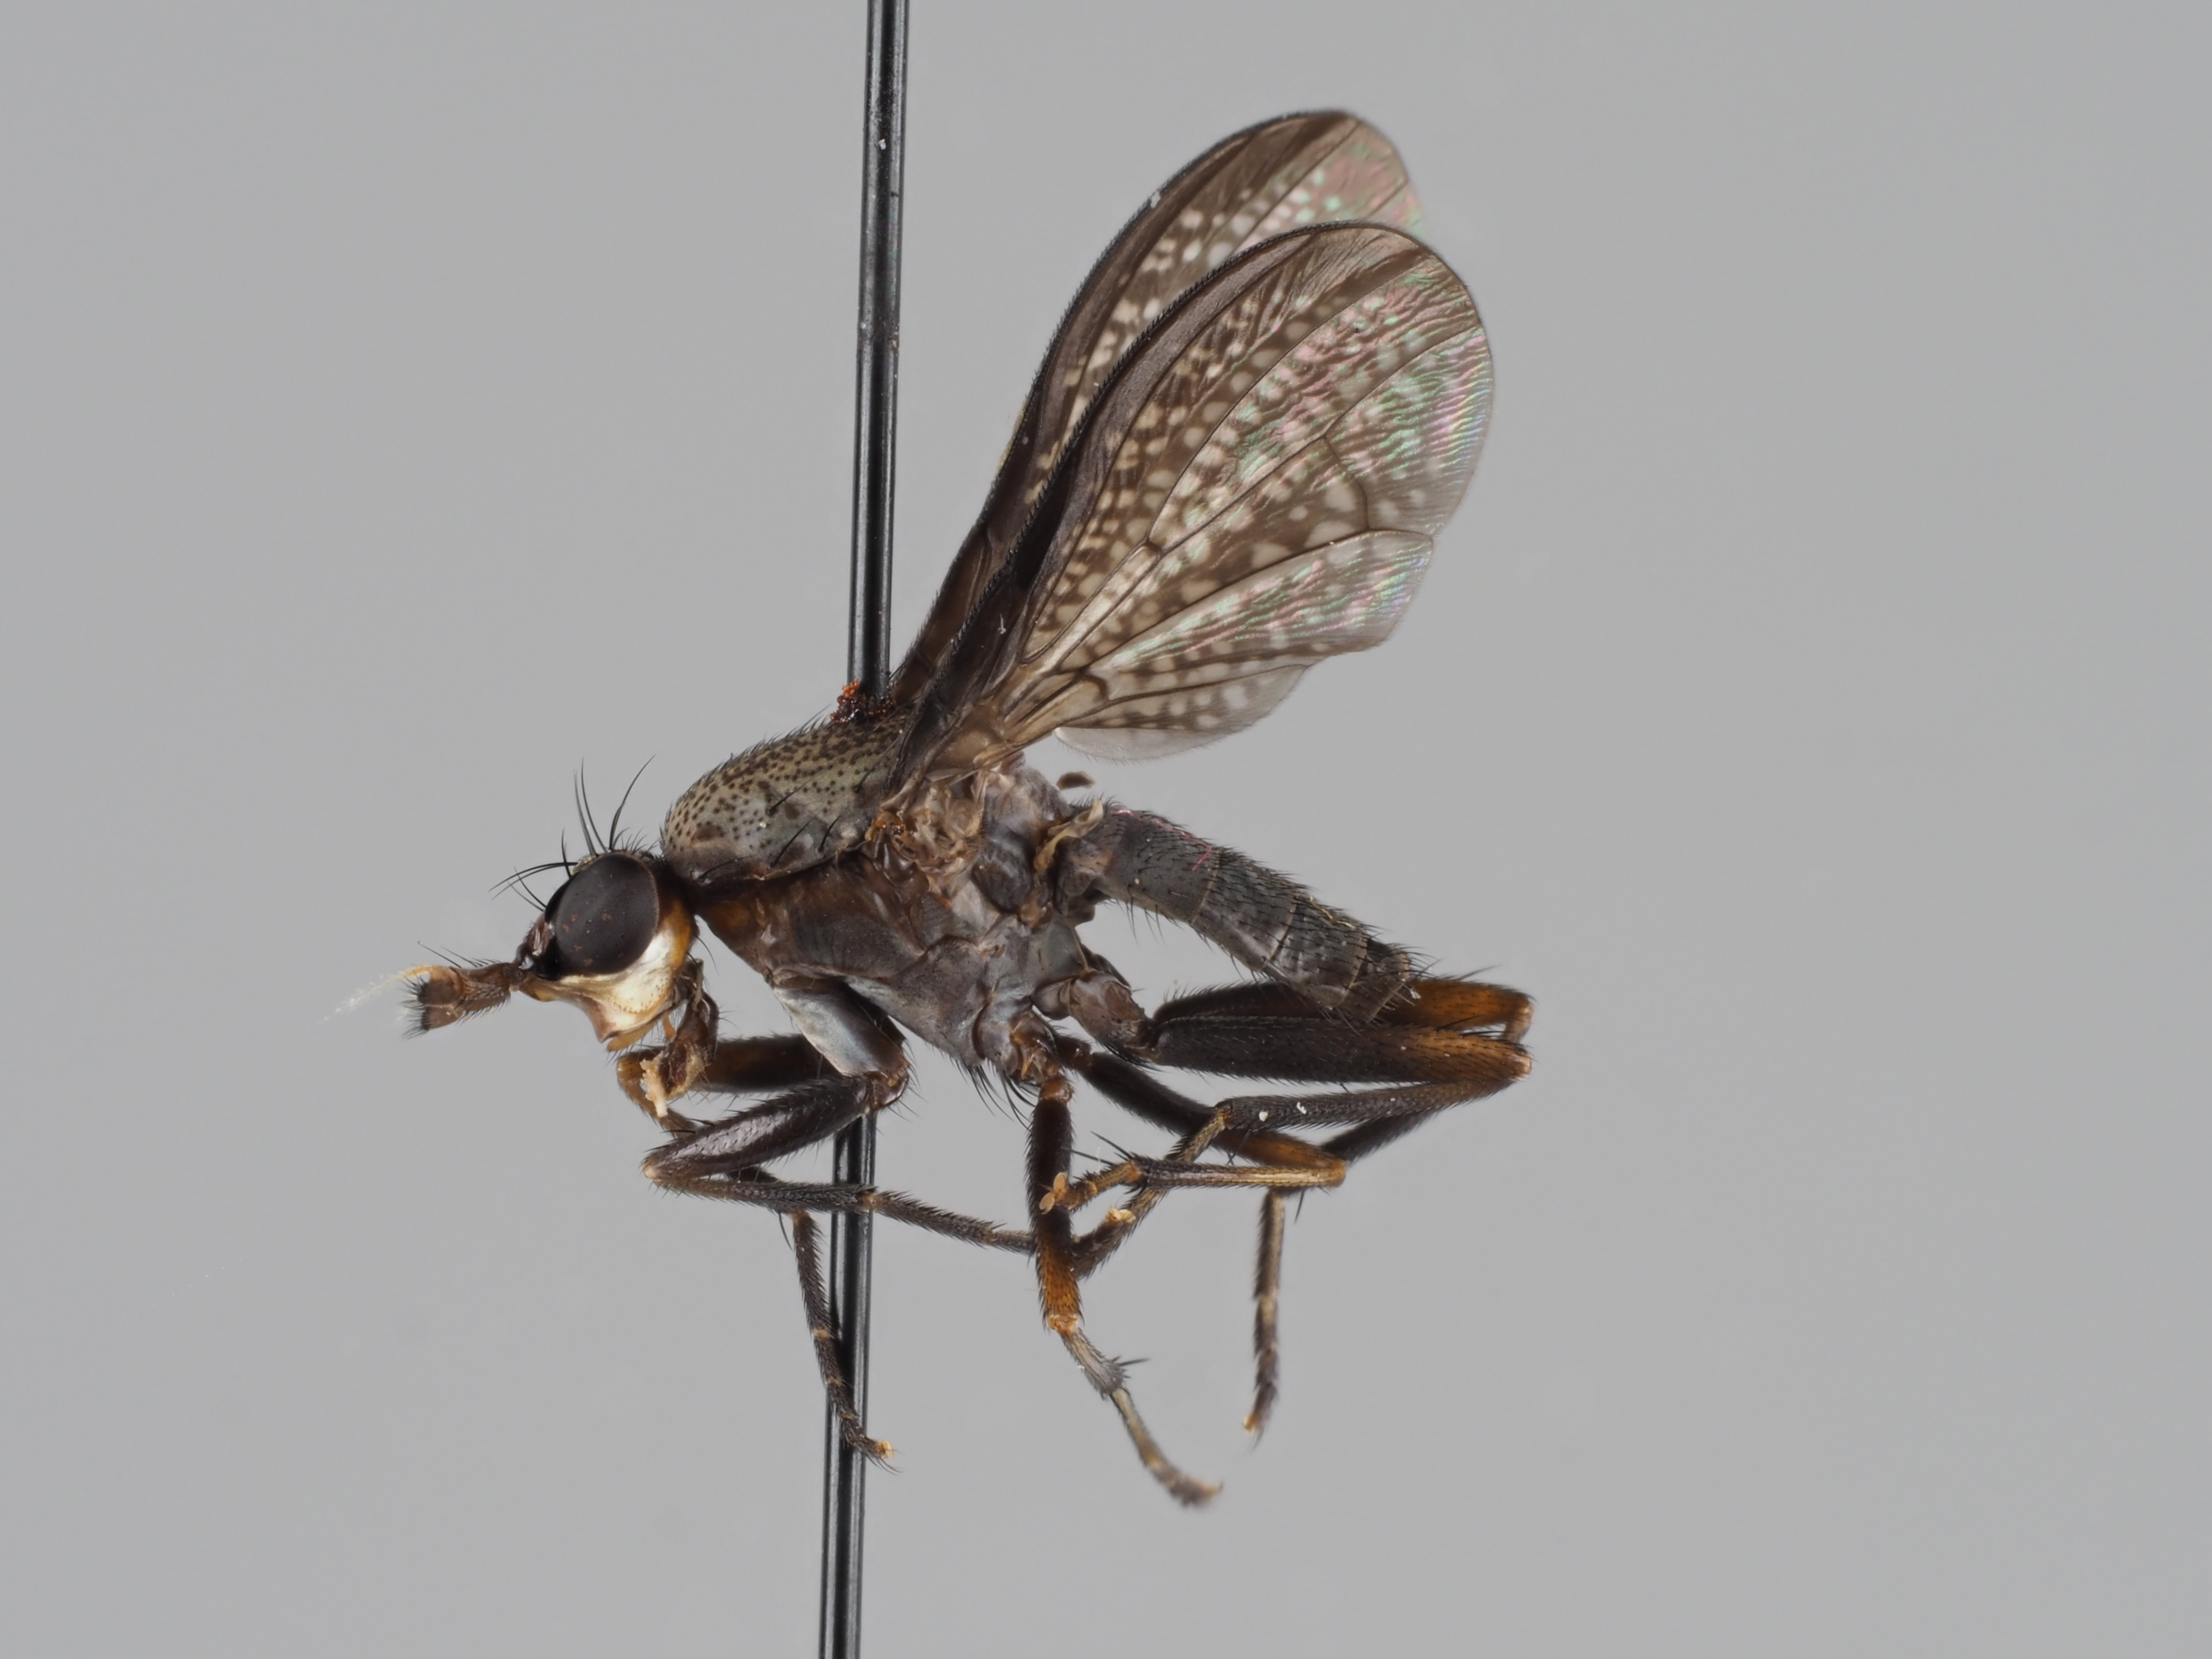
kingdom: Animalia
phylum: Arthropoda
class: Insecta
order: Diptera
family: Sciomyzidae
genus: Coremacera
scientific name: Coremacera marginata
